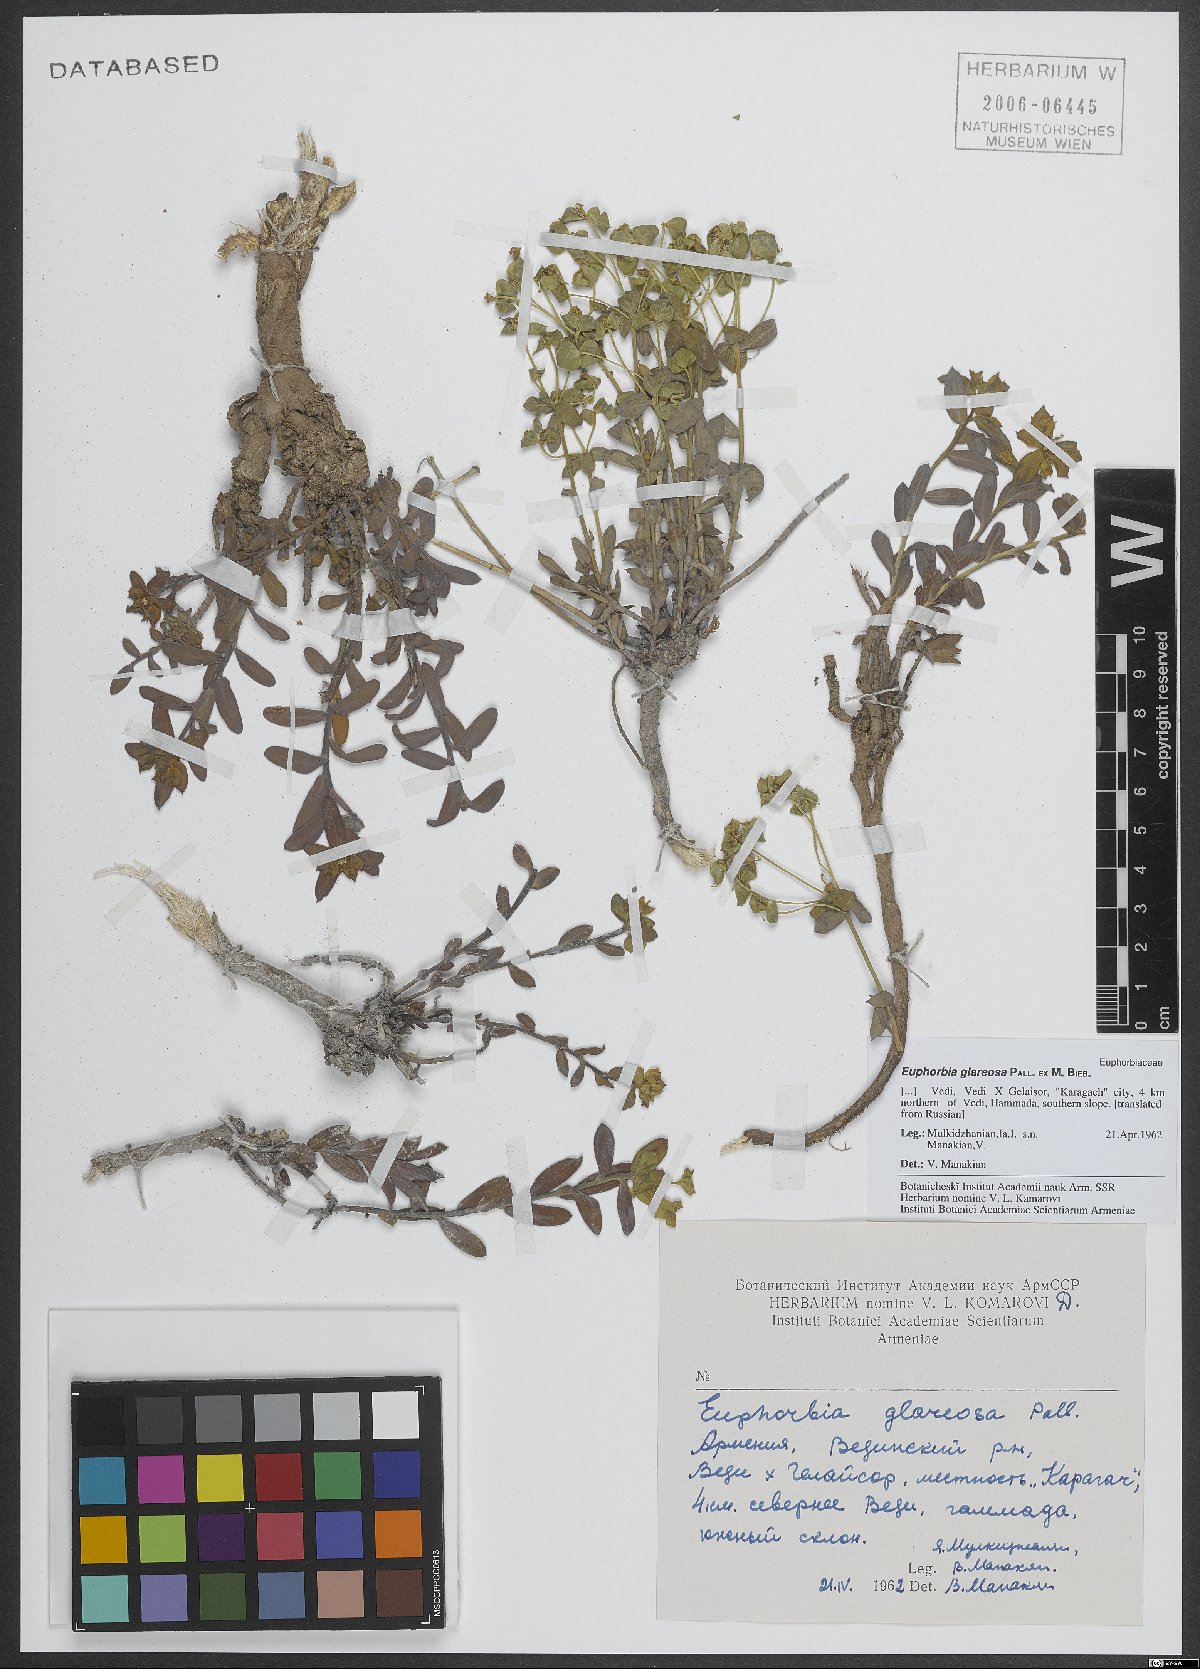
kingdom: Plantae
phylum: Tracheophyta
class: Magnoliopsida
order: Malpighiales
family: Euphorbiaceae
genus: Euphorbia
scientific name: Euphorbia glareosa
